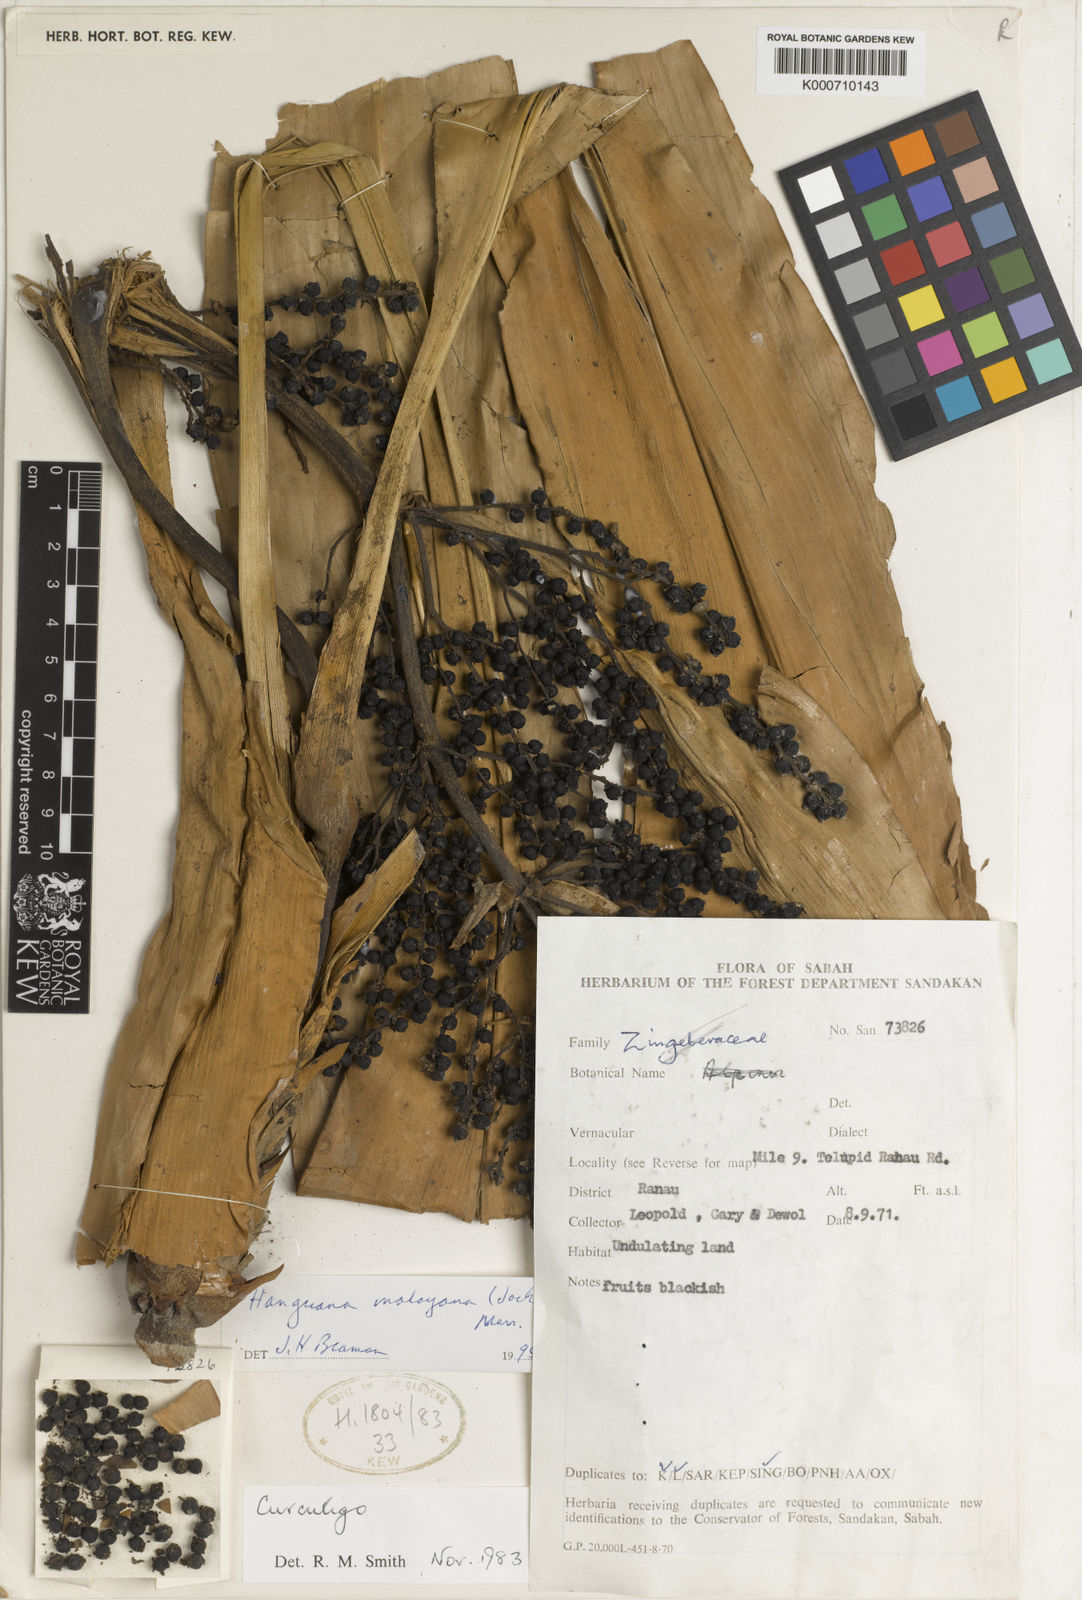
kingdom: Plantae
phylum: Tracheophyta
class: Liliopsida
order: Commelinales
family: Hanguanaceae
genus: Hanguana
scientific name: Hanguana malayana
